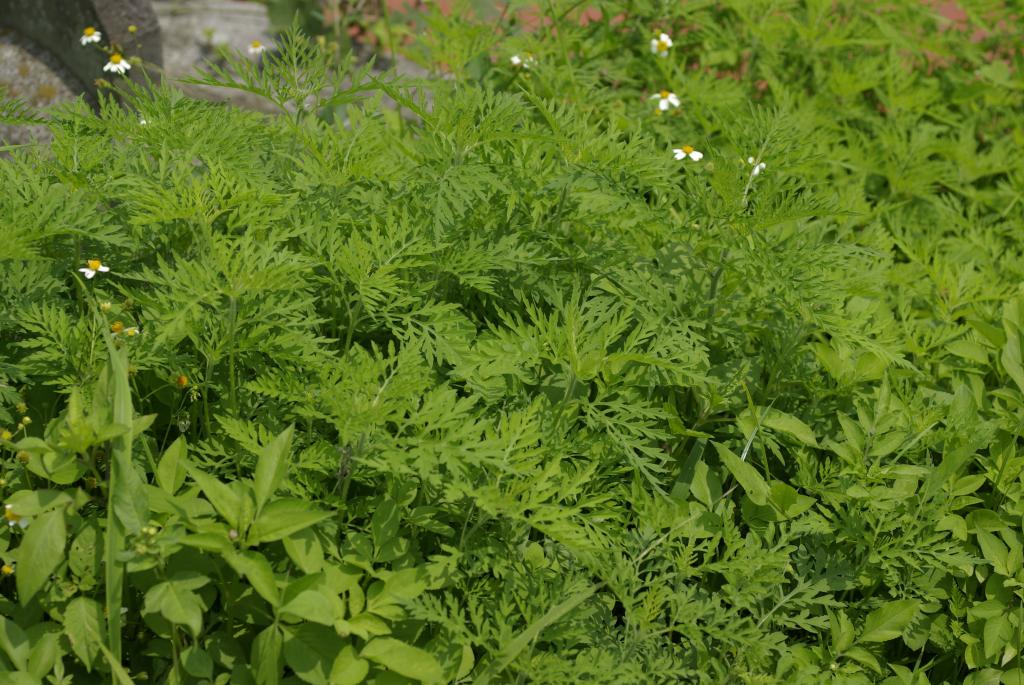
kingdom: Plantae
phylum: Tracheophyta
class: Magnoliopsida
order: Asterales
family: Asteraceae
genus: Ambrosia
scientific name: Ambrosia artemisiifolia
